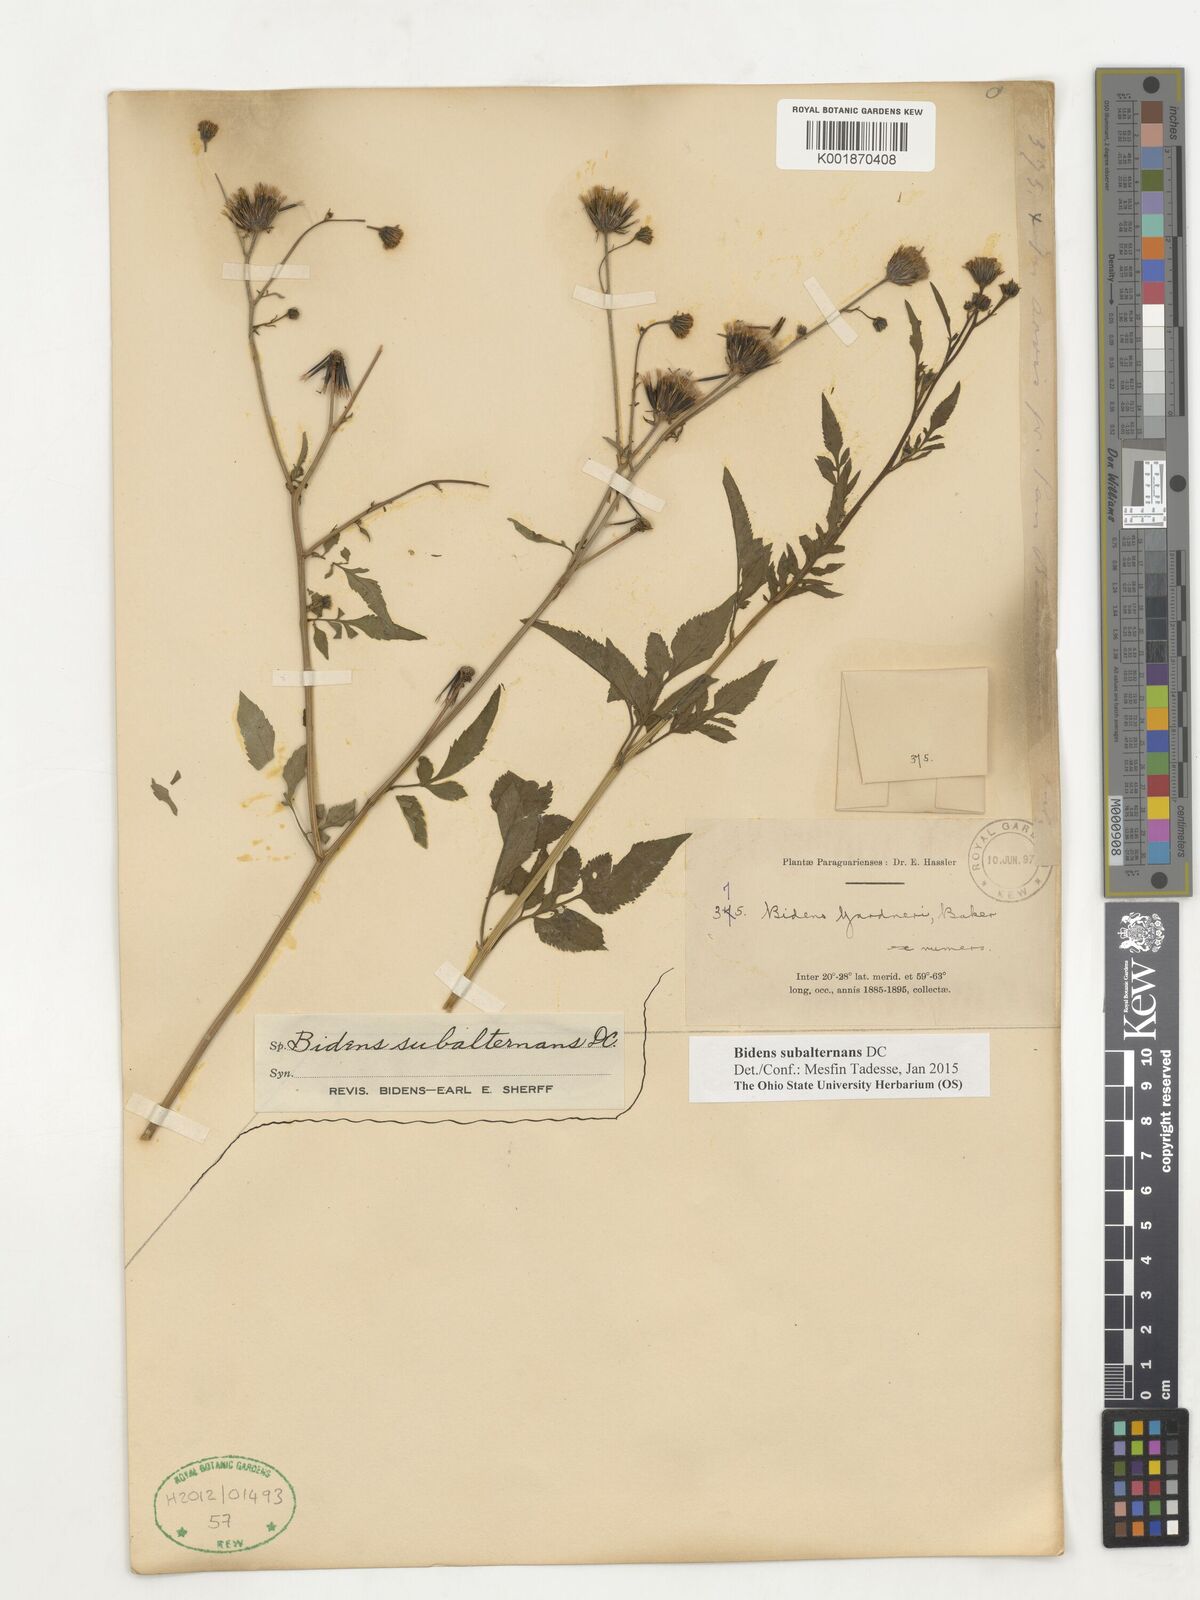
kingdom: Plantae
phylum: Tracheophyta
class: Magnoliopsida
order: Asterales
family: Asteraceae
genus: Bidens
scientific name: Bidens subalternans
